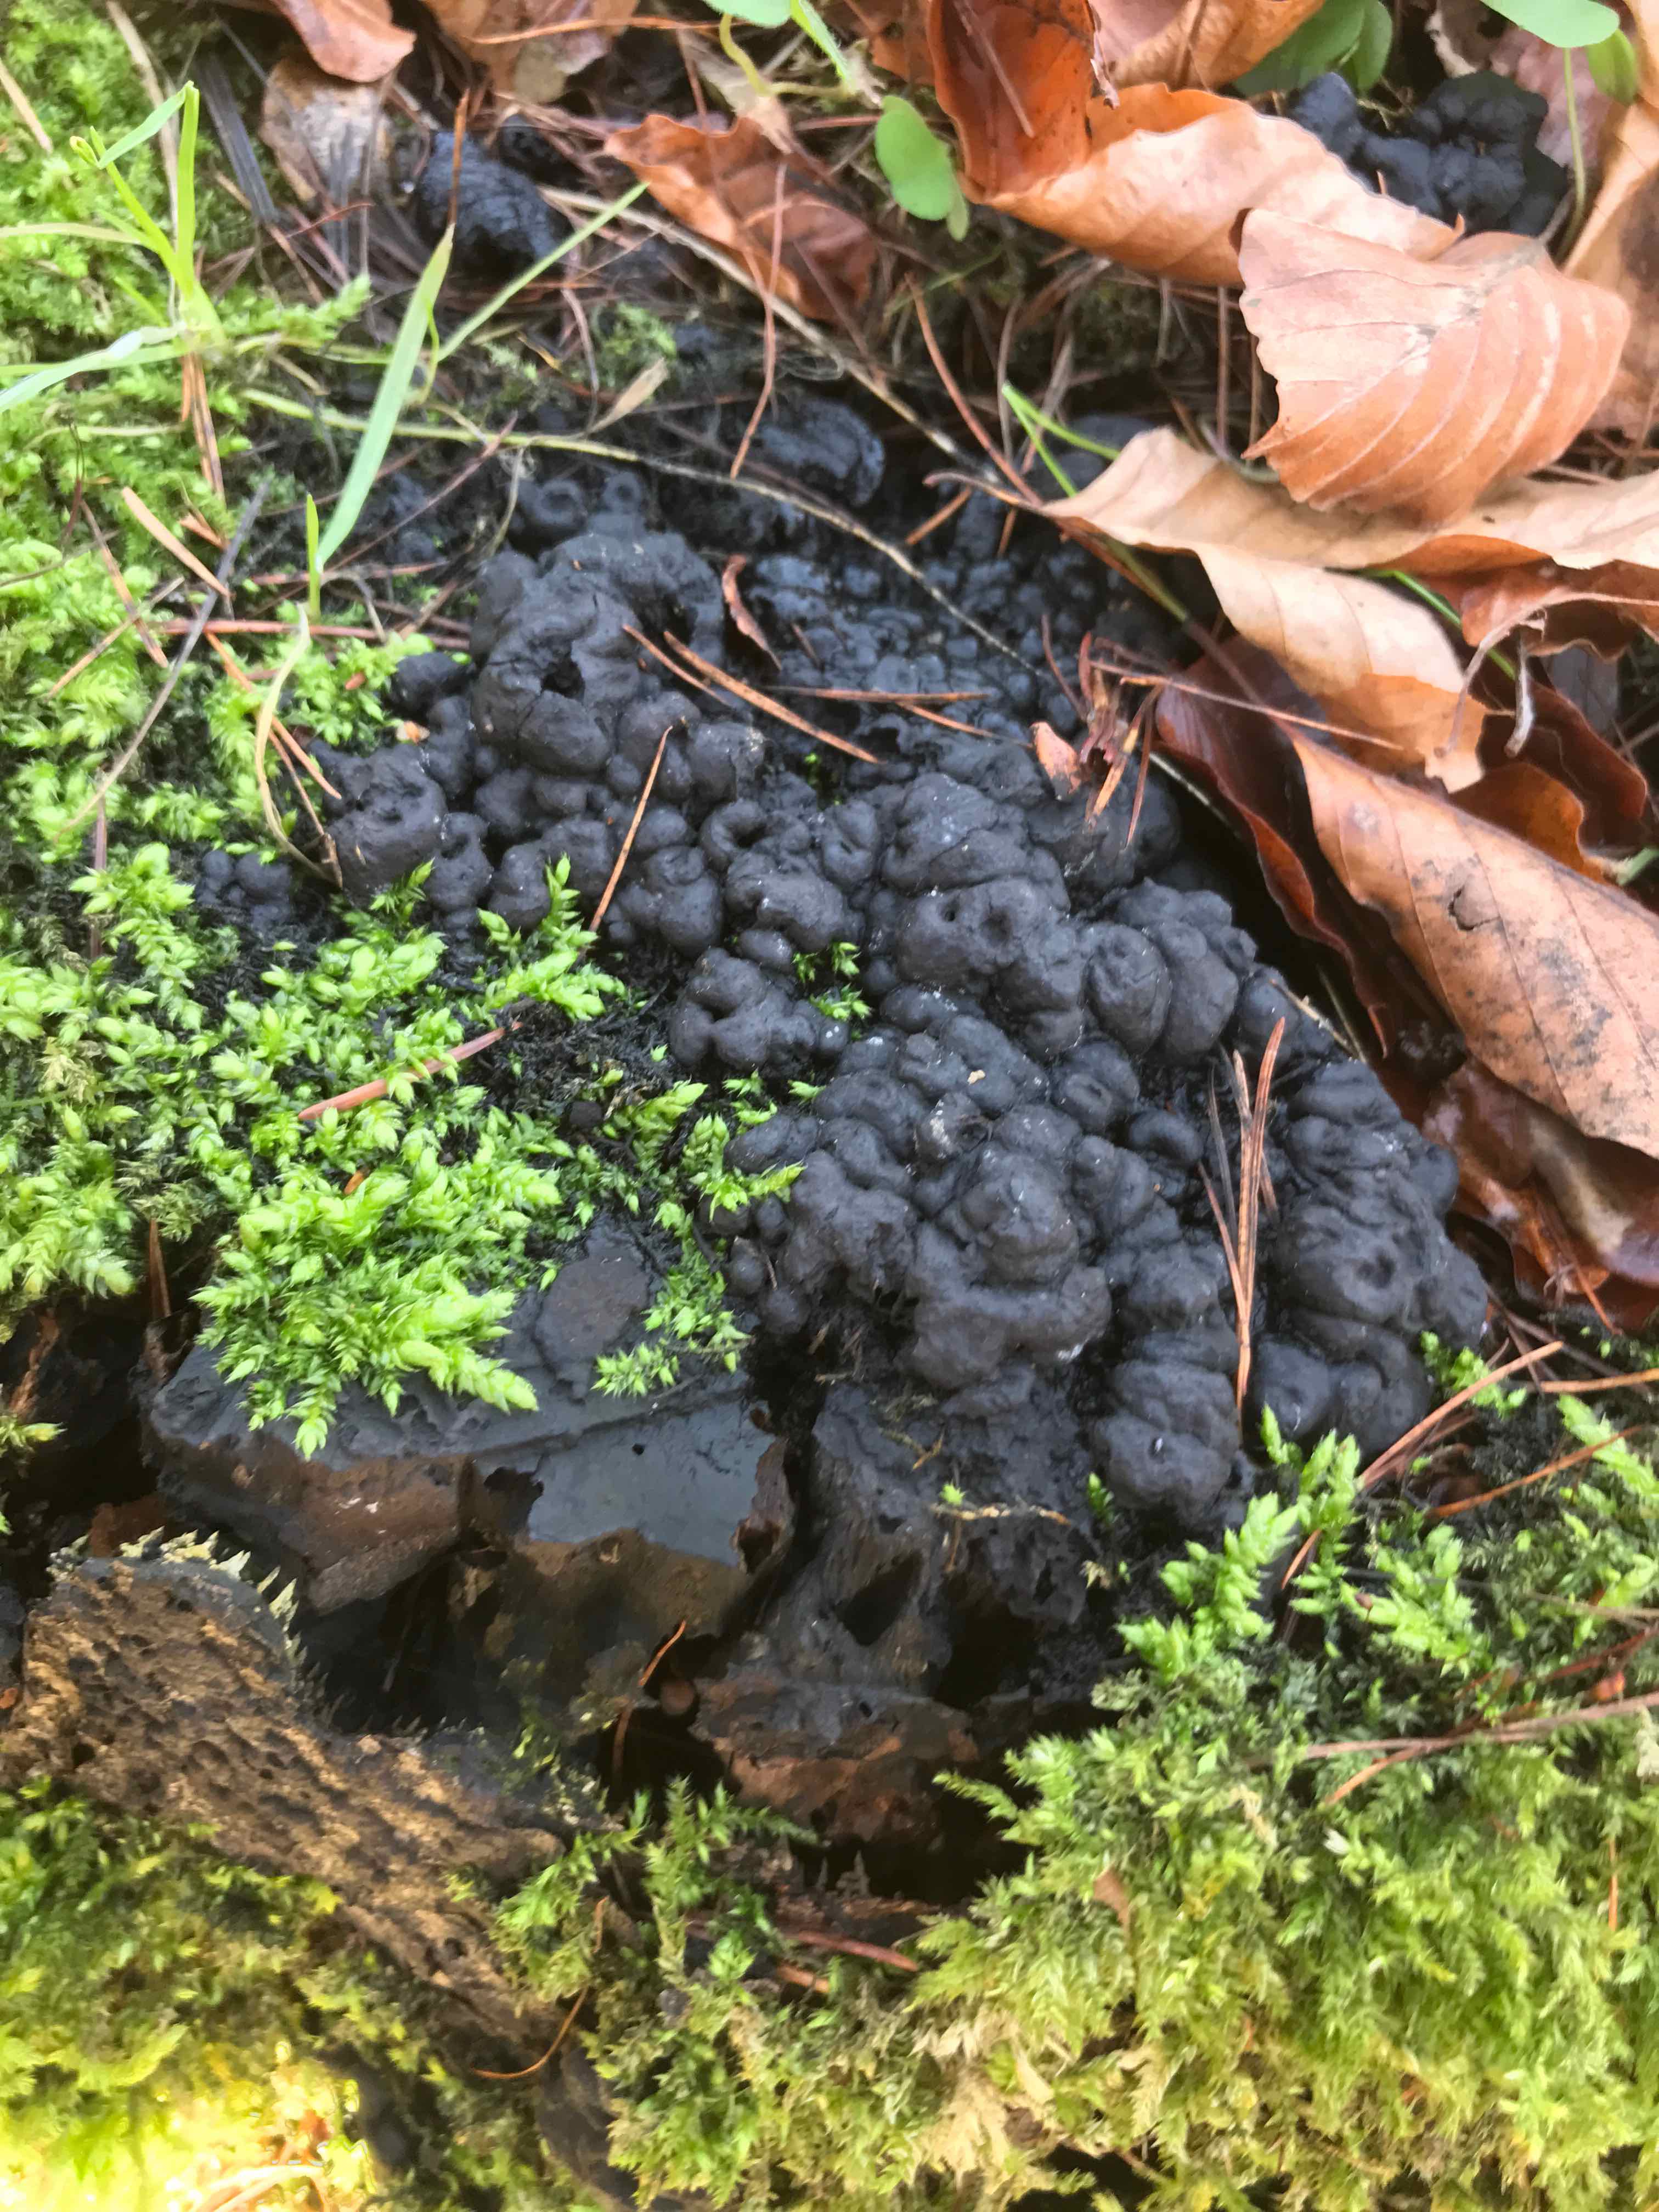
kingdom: Fungi
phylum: Ascomycota
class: Sordariomycetes
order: Xylariales
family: Xylariaceae
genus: Kretzschmaria
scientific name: Kretzschmaria deusta
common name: stor kulsvamp
